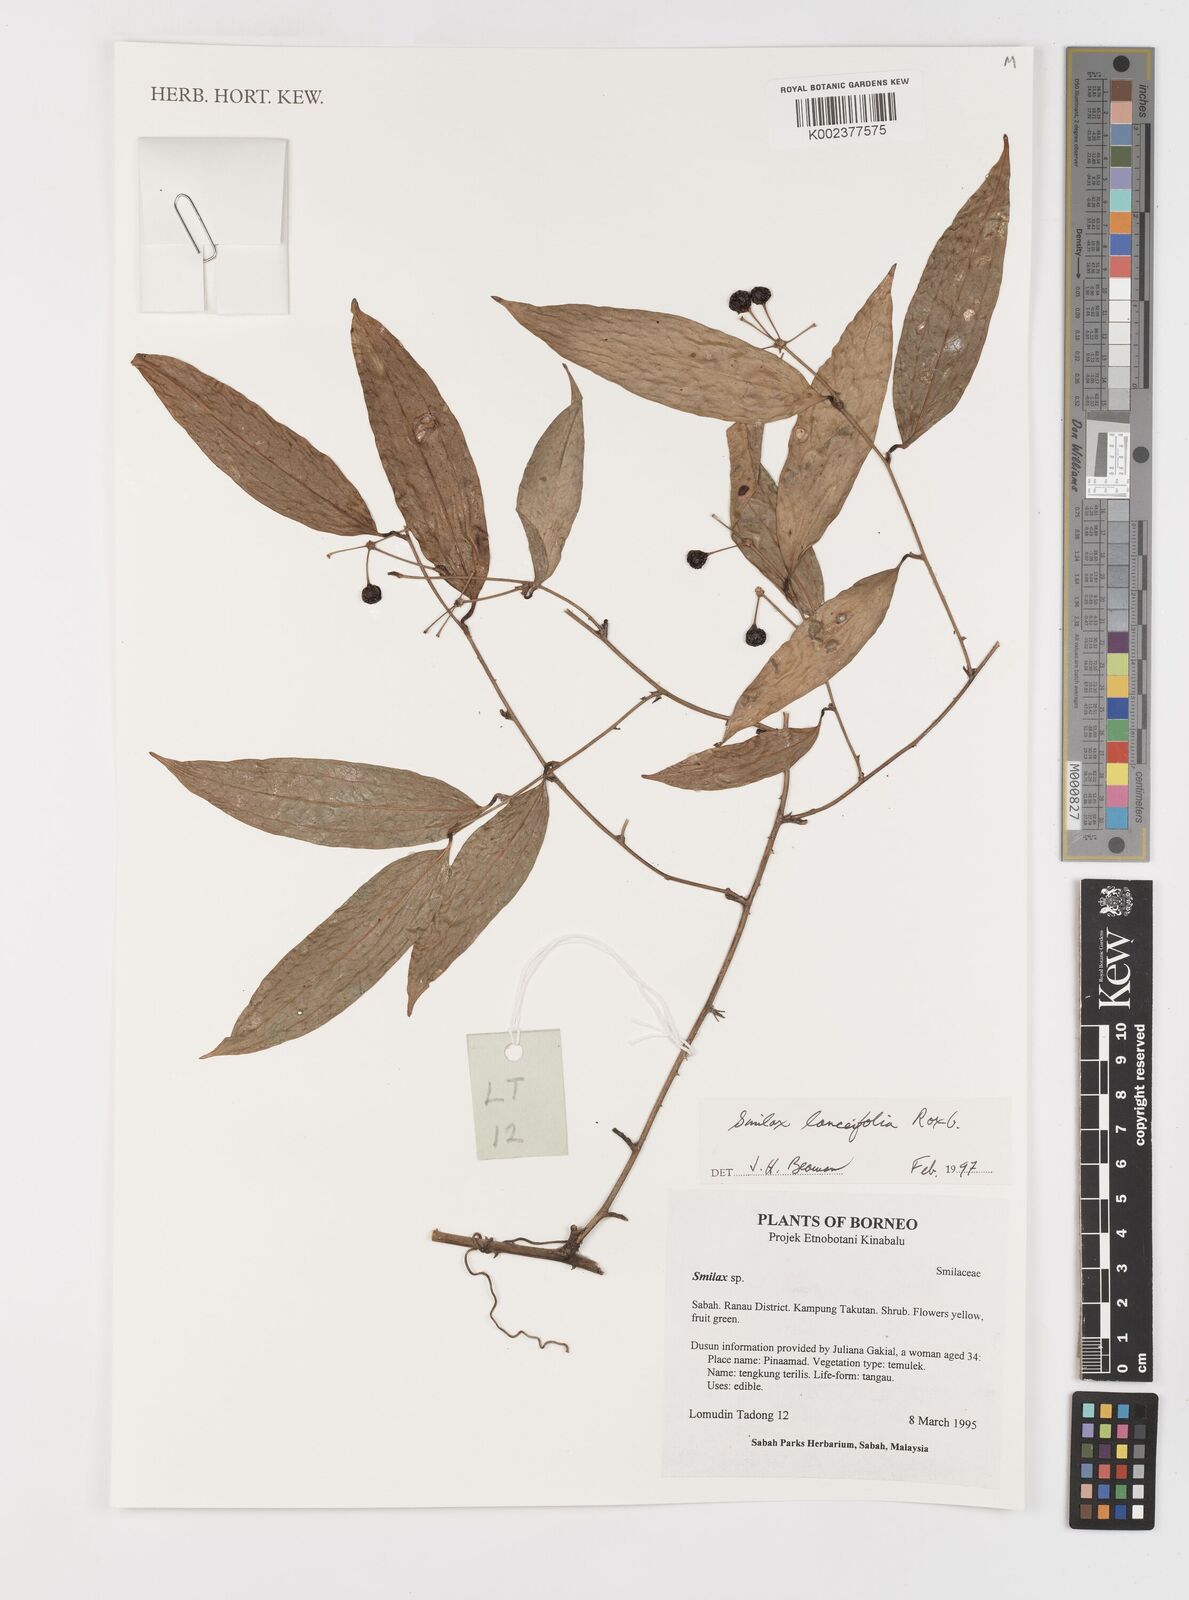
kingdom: Plantae
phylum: Tracheophyta
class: Liliopsida
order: Liliales
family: Smilacaceae
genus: Smilax
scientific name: Smilax lanceifolia
